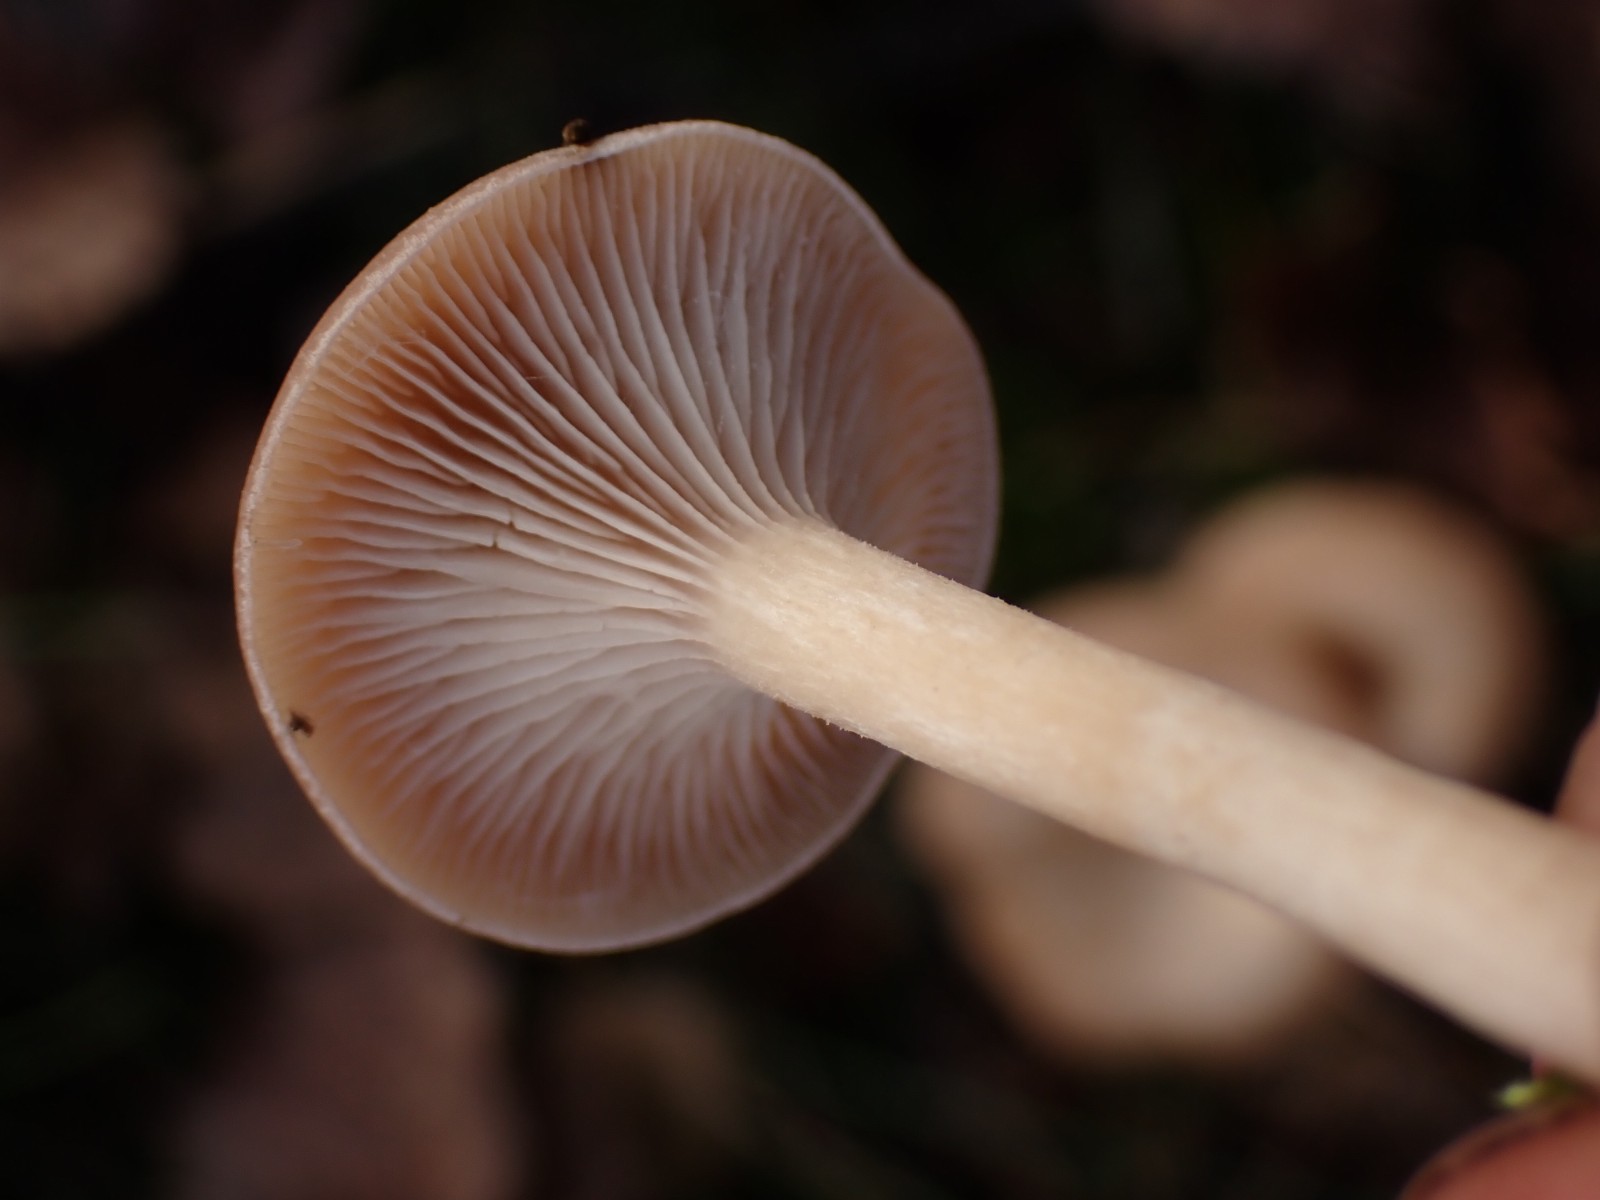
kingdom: Fungi
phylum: Basidiomycota
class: Agaricomycetes
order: Agaricales
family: Tricholomataceae
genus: Clitocybe
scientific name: Clitocybe
